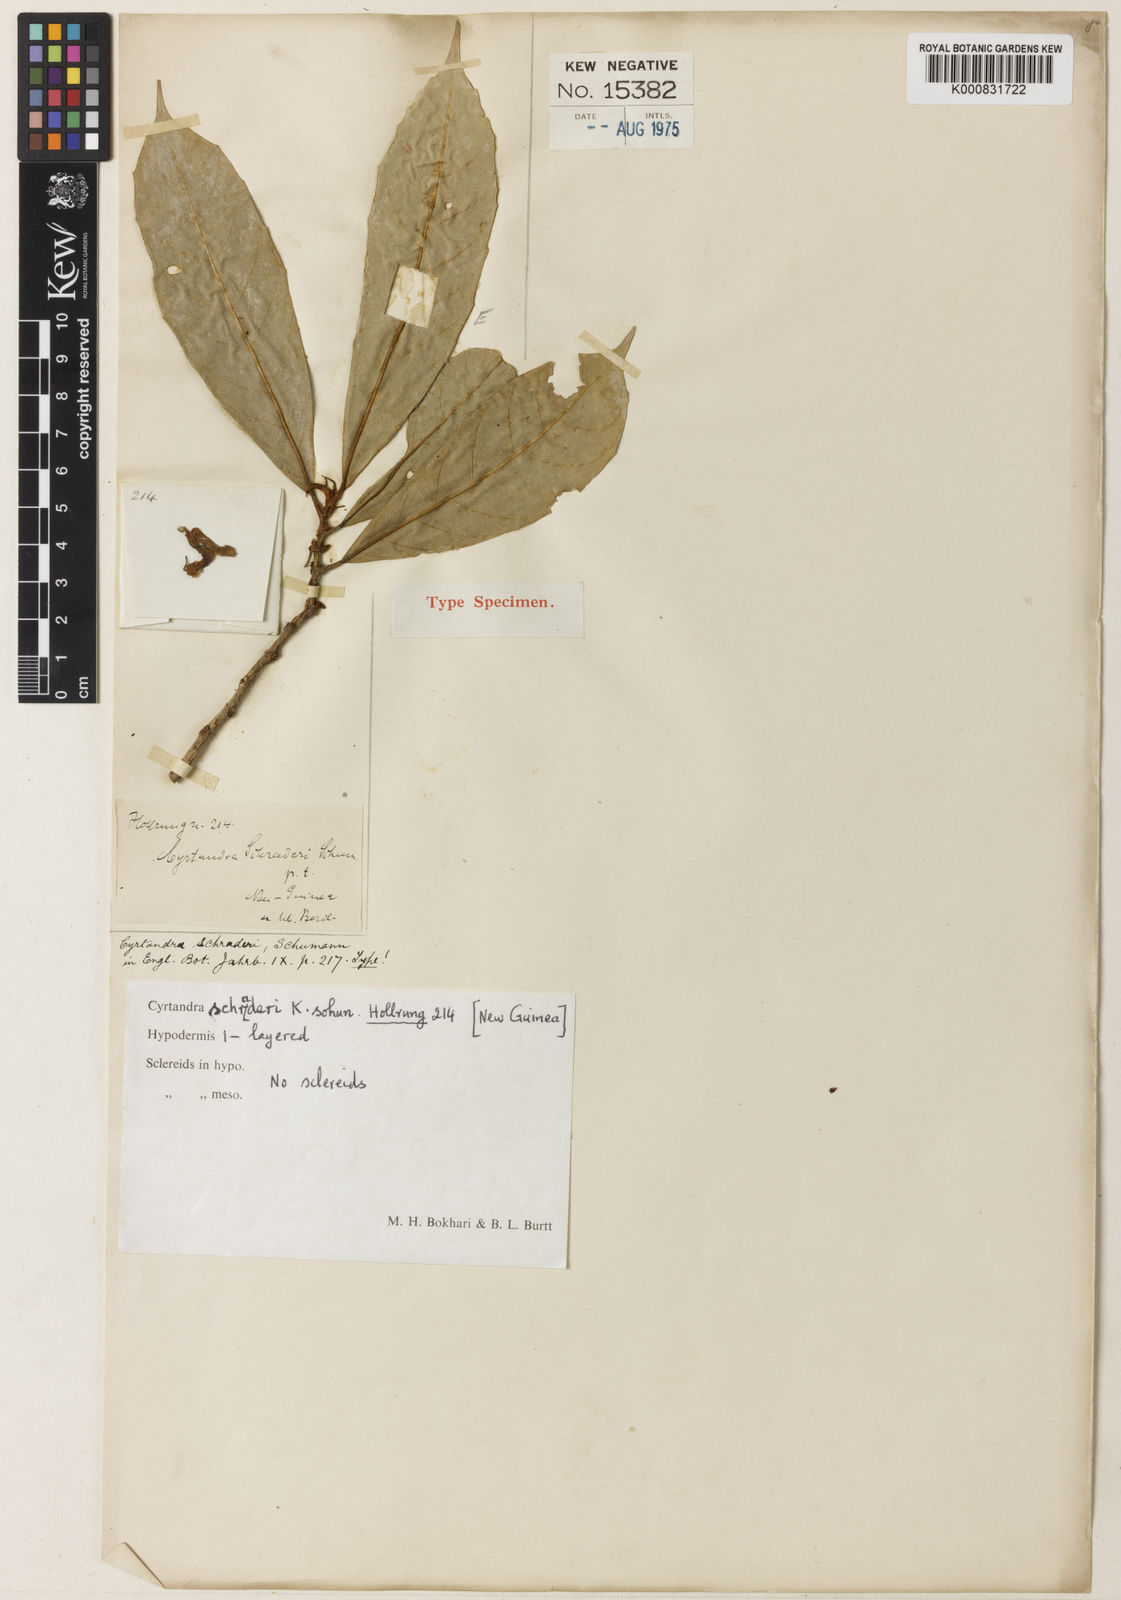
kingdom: Plantae
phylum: Tracheophyta
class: Magnoliopsida
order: Lamiales
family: Gesneriaceae
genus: Cyrtandra
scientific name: Cyrtandra schraderi
